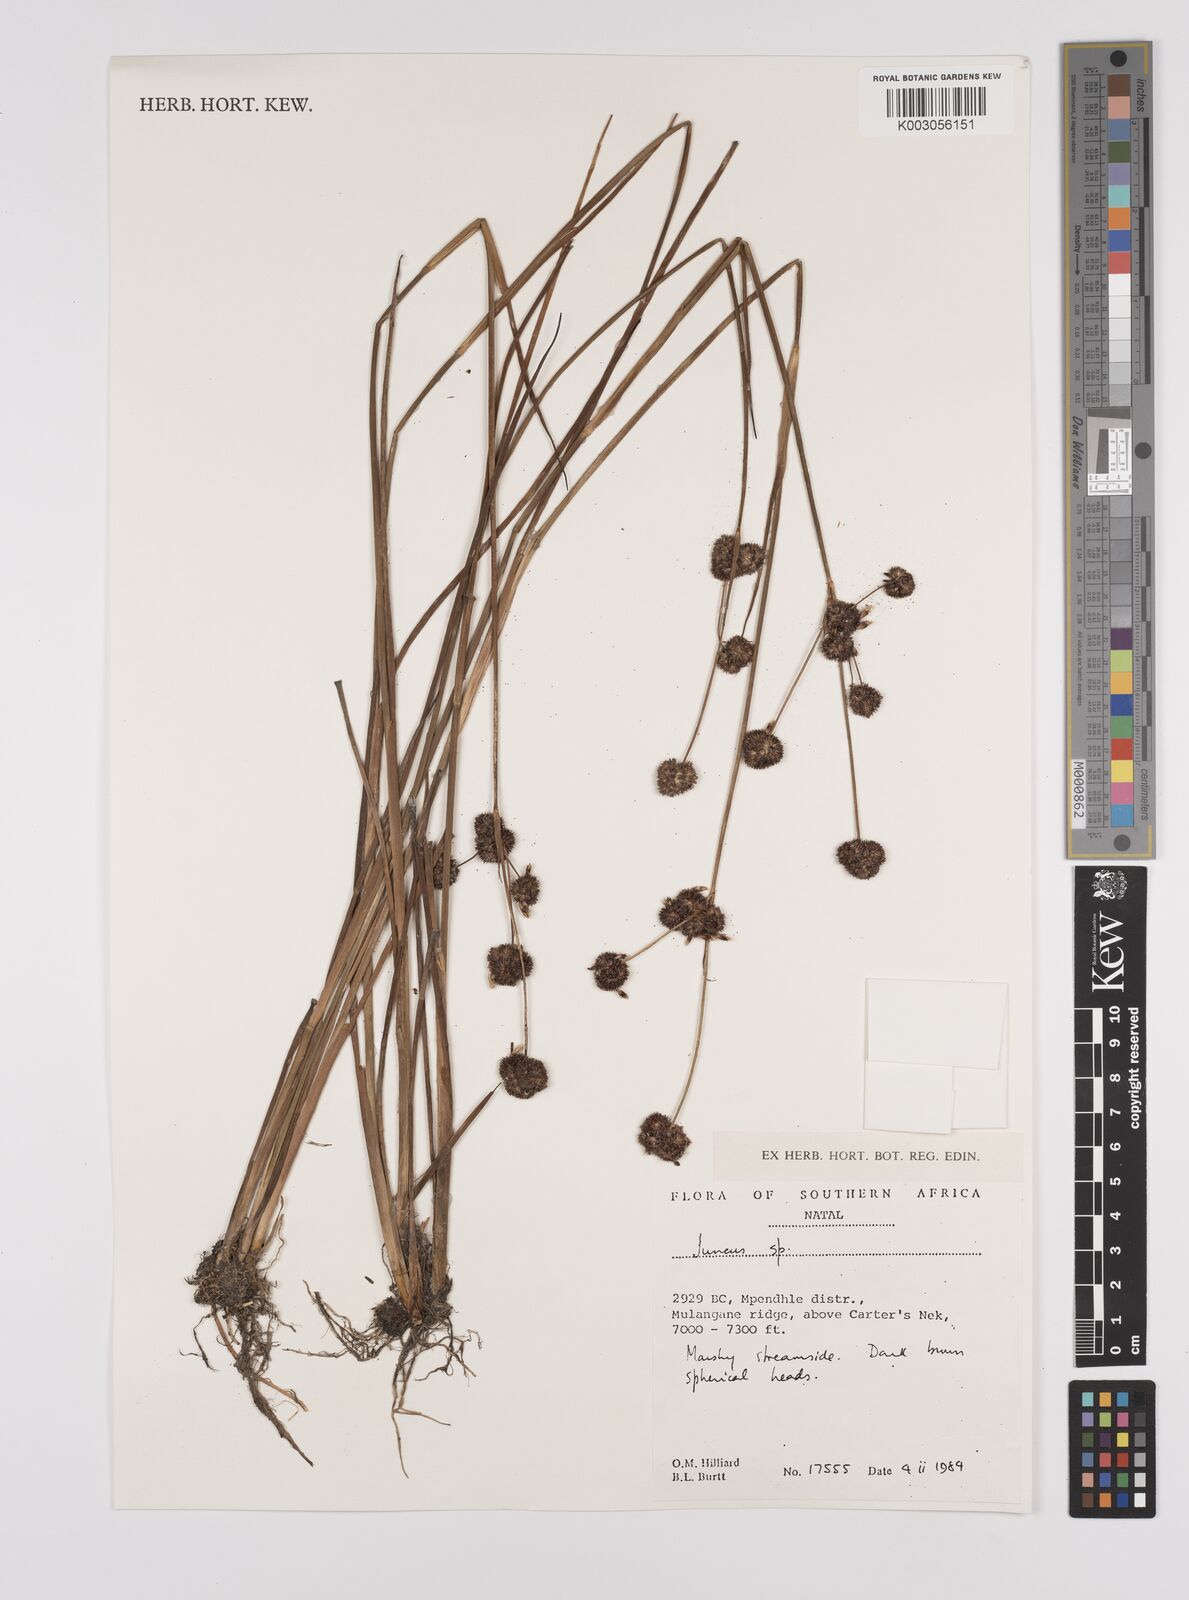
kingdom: Plantae
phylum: Tracheophyta
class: Liliopsida
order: Poales
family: Juncaceae
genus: Juncus
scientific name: Juncus
